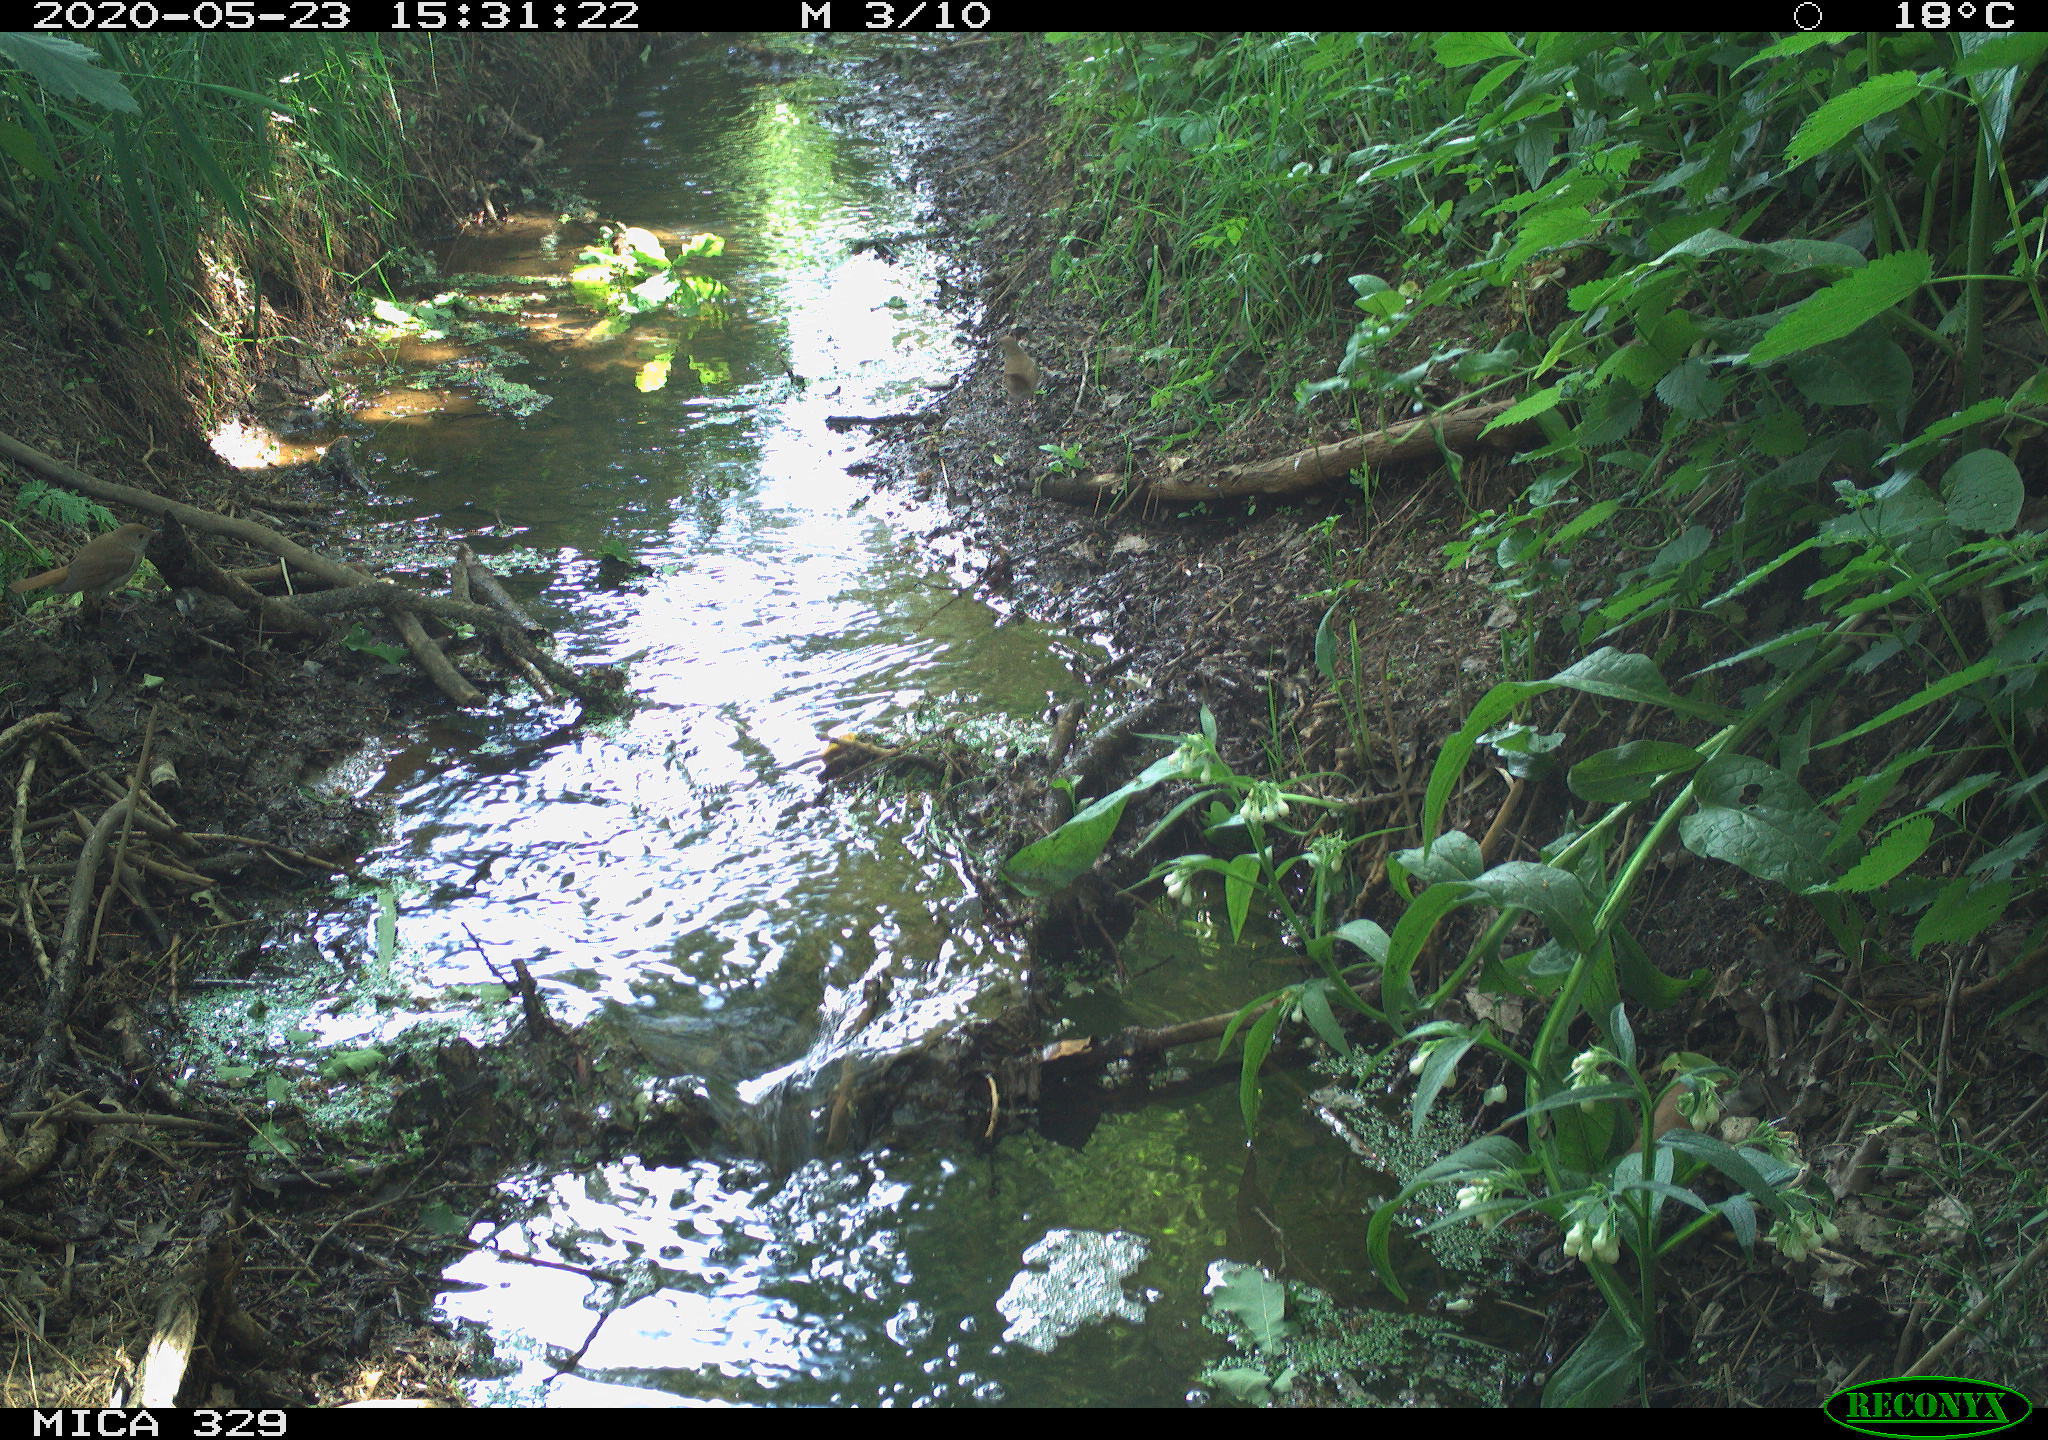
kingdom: Animalia
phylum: Chordata
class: Aves
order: Passeriformes
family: Turdidae
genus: Turdus
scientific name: Turdus philomelos
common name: Song thrush
